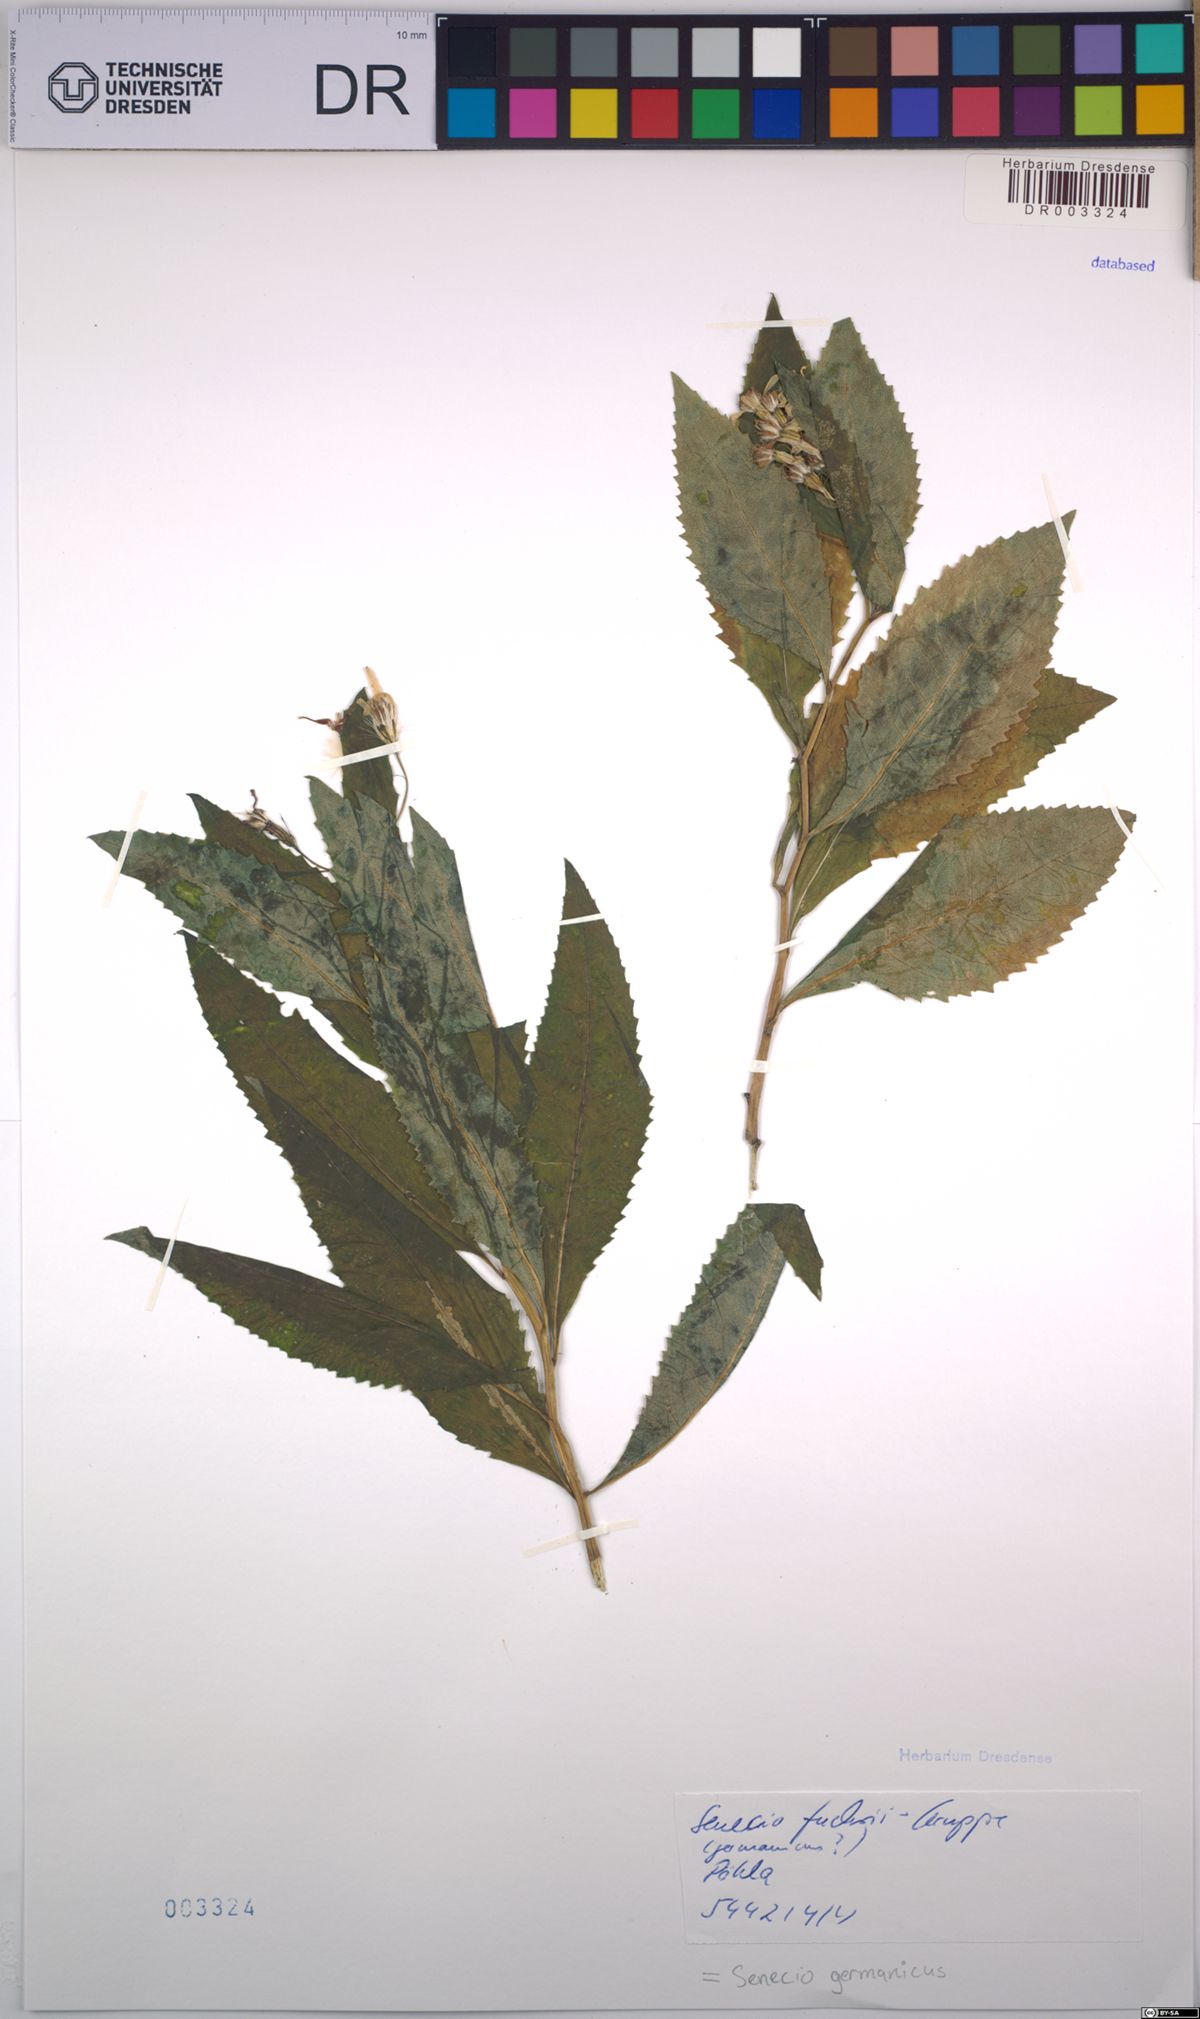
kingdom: Plantae
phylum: Tracheophyta
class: Magnoliopsida
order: Asterales
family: Asteraceae
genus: Senecio
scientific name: Senecio germanicus
